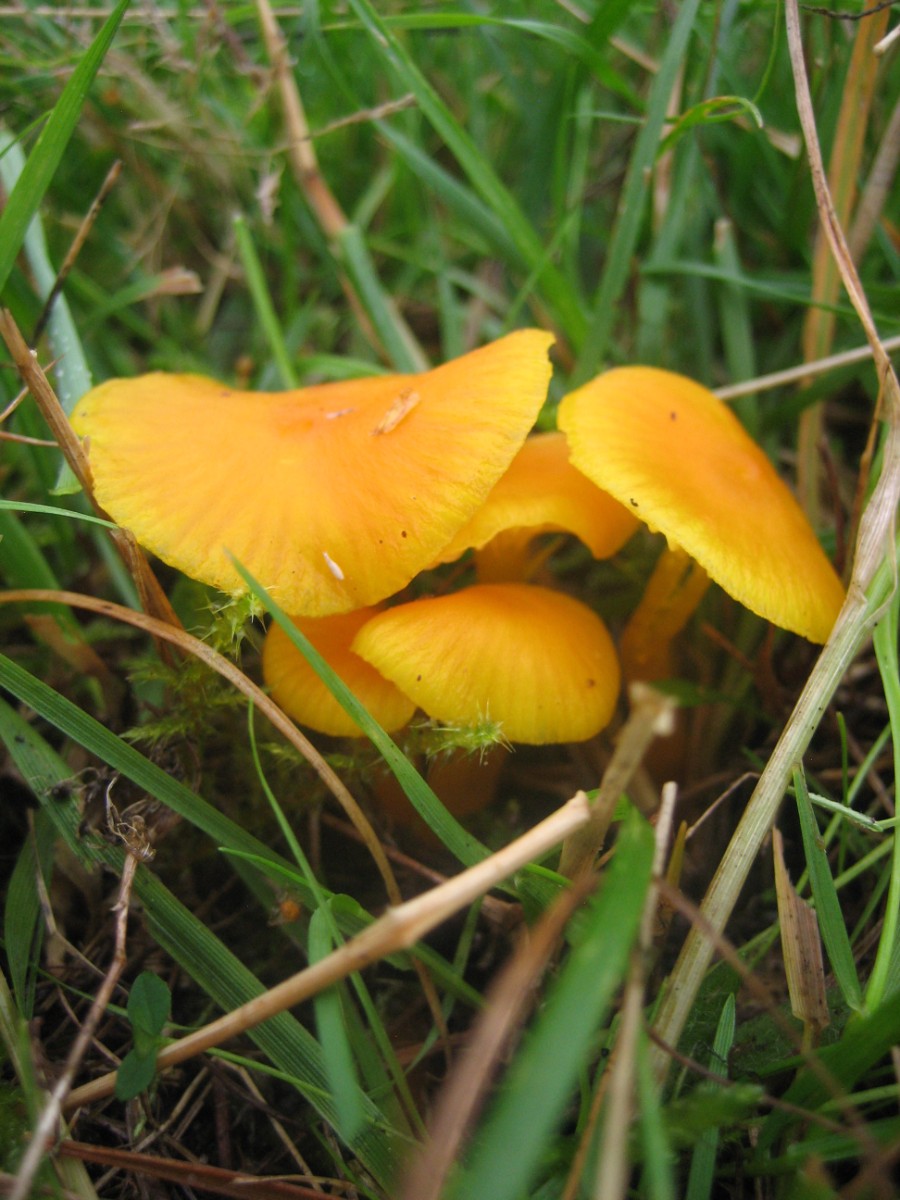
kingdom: Fungi
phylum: Basidiomycota
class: Agaricomycetes
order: Agaricales
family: Hygrophoraceae
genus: Hygrocybe
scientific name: Hygrocybe ceracea
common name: voksgul vokshat
